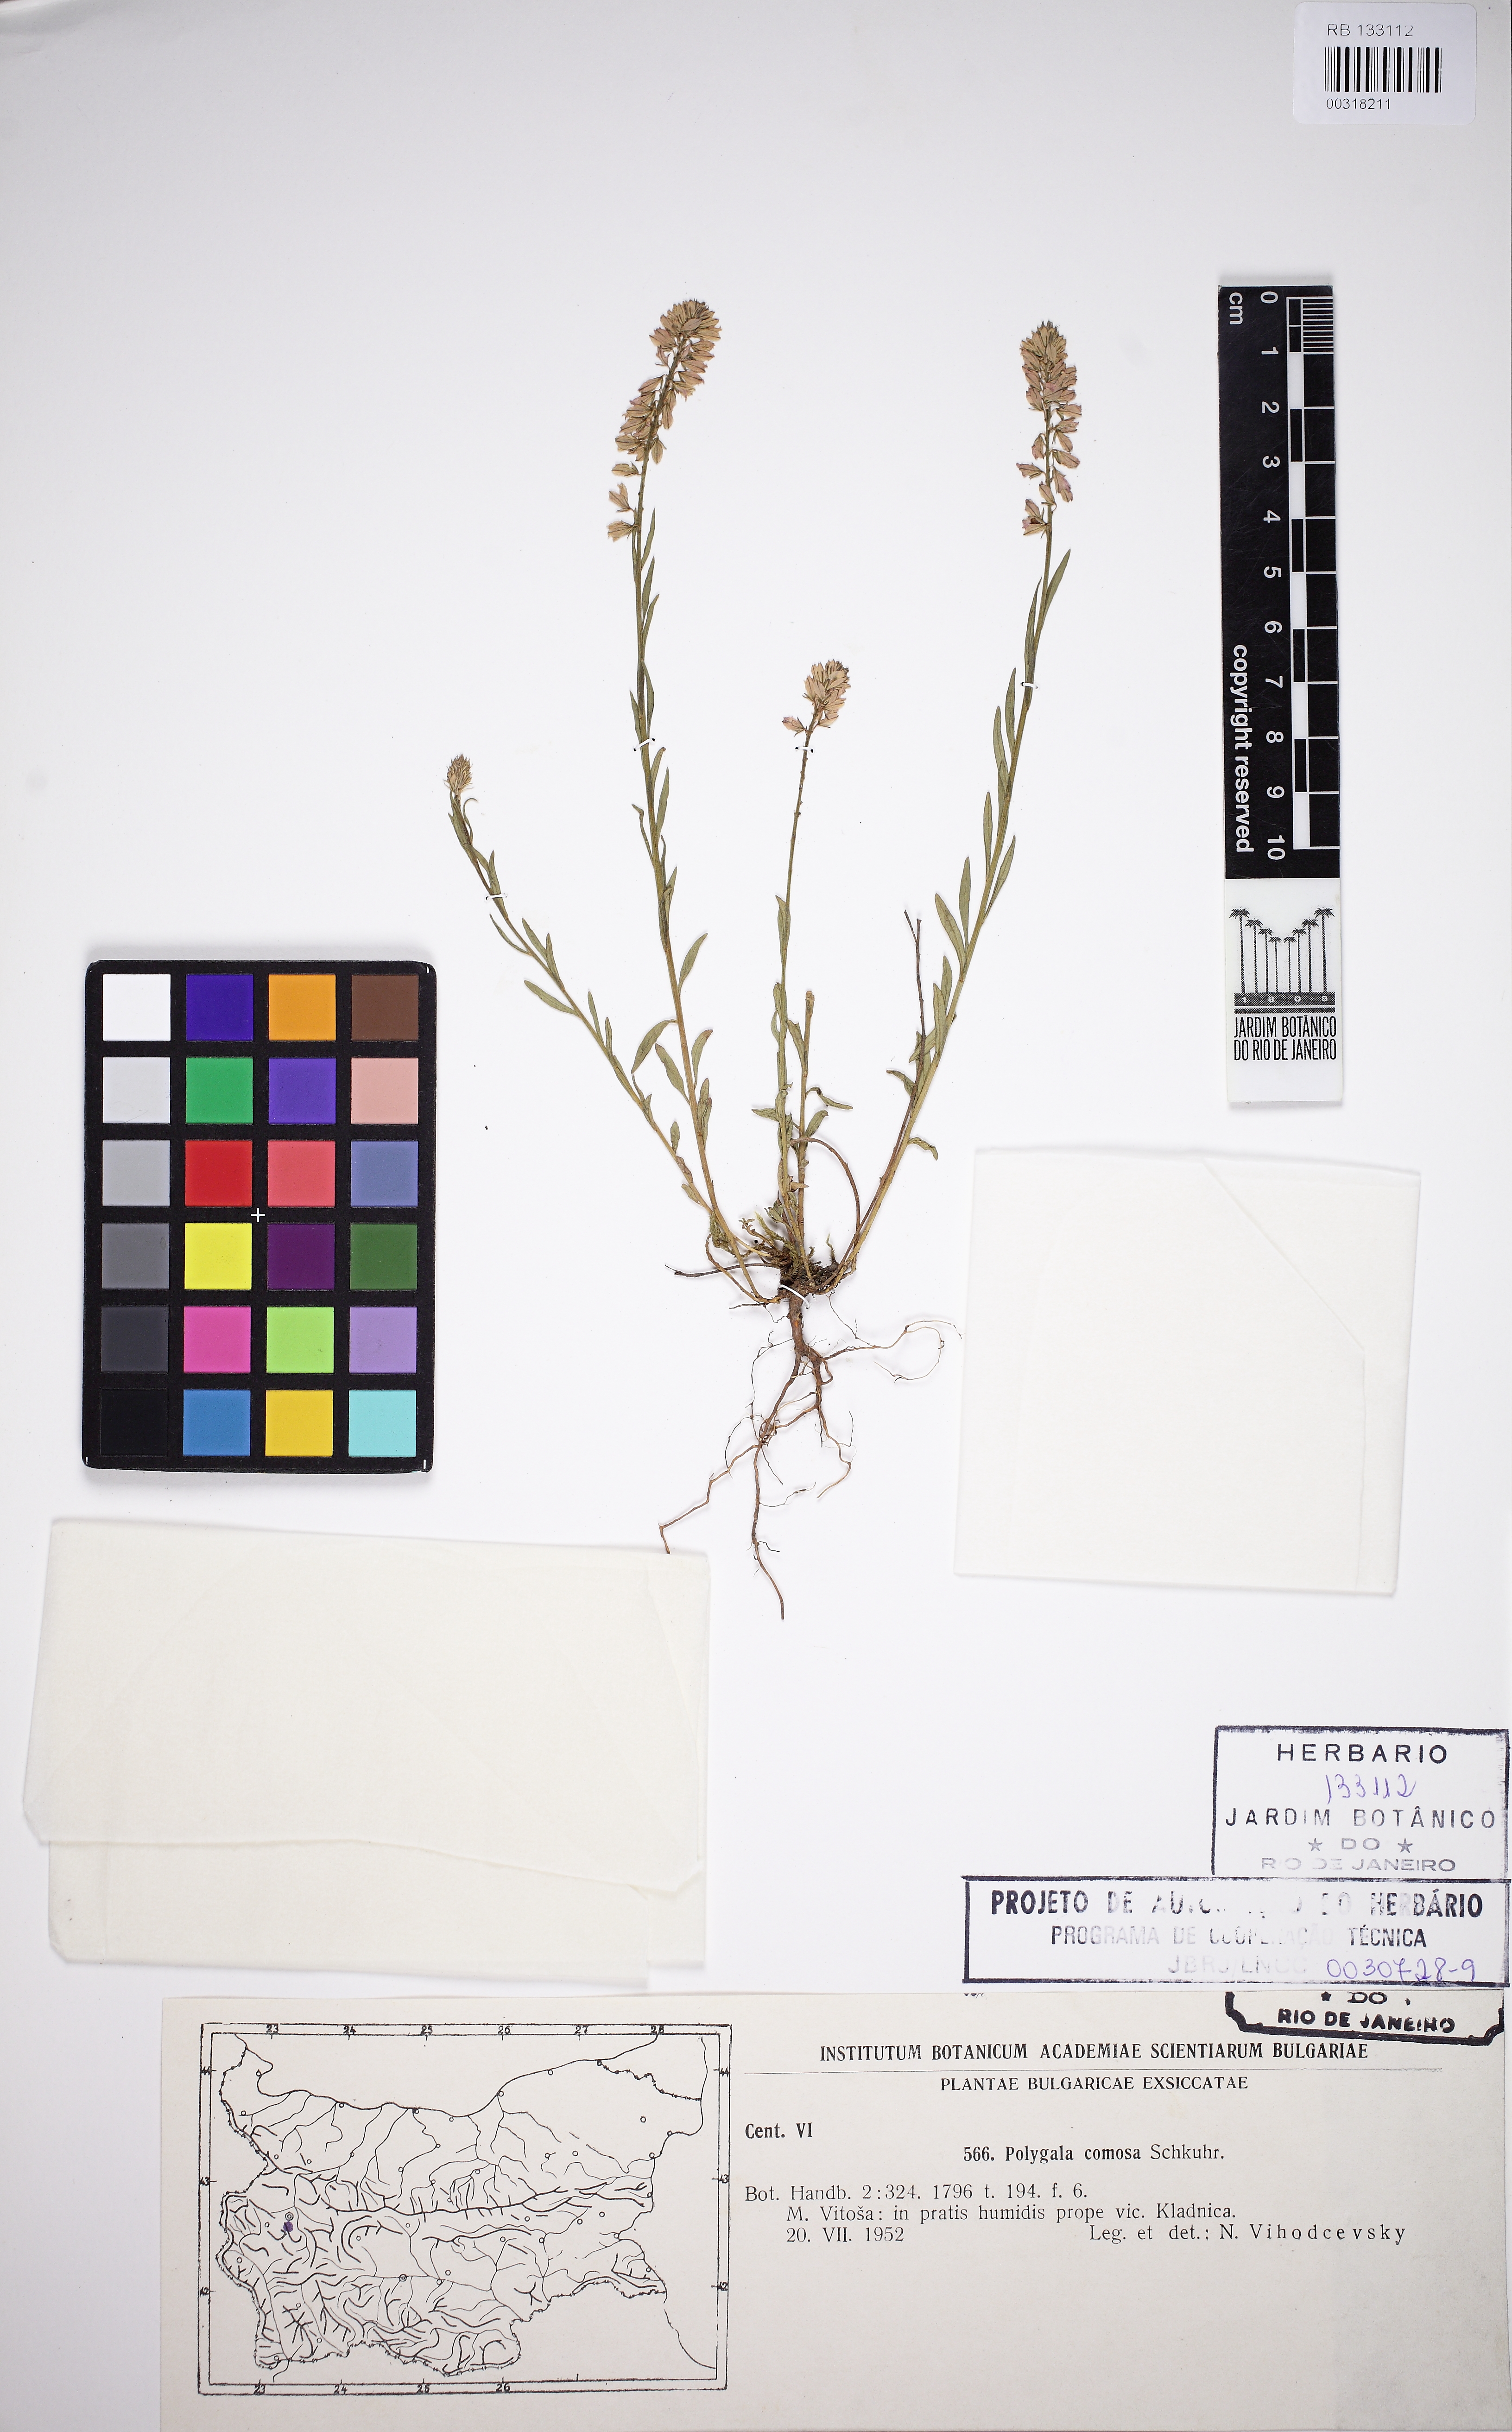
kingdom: Plantae
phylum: Tracheophyta
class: Magnoliopsida
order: Fabales
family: Polygalaceae
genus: Polygala
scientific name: Polygala comosa
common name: Tufted milkwort
